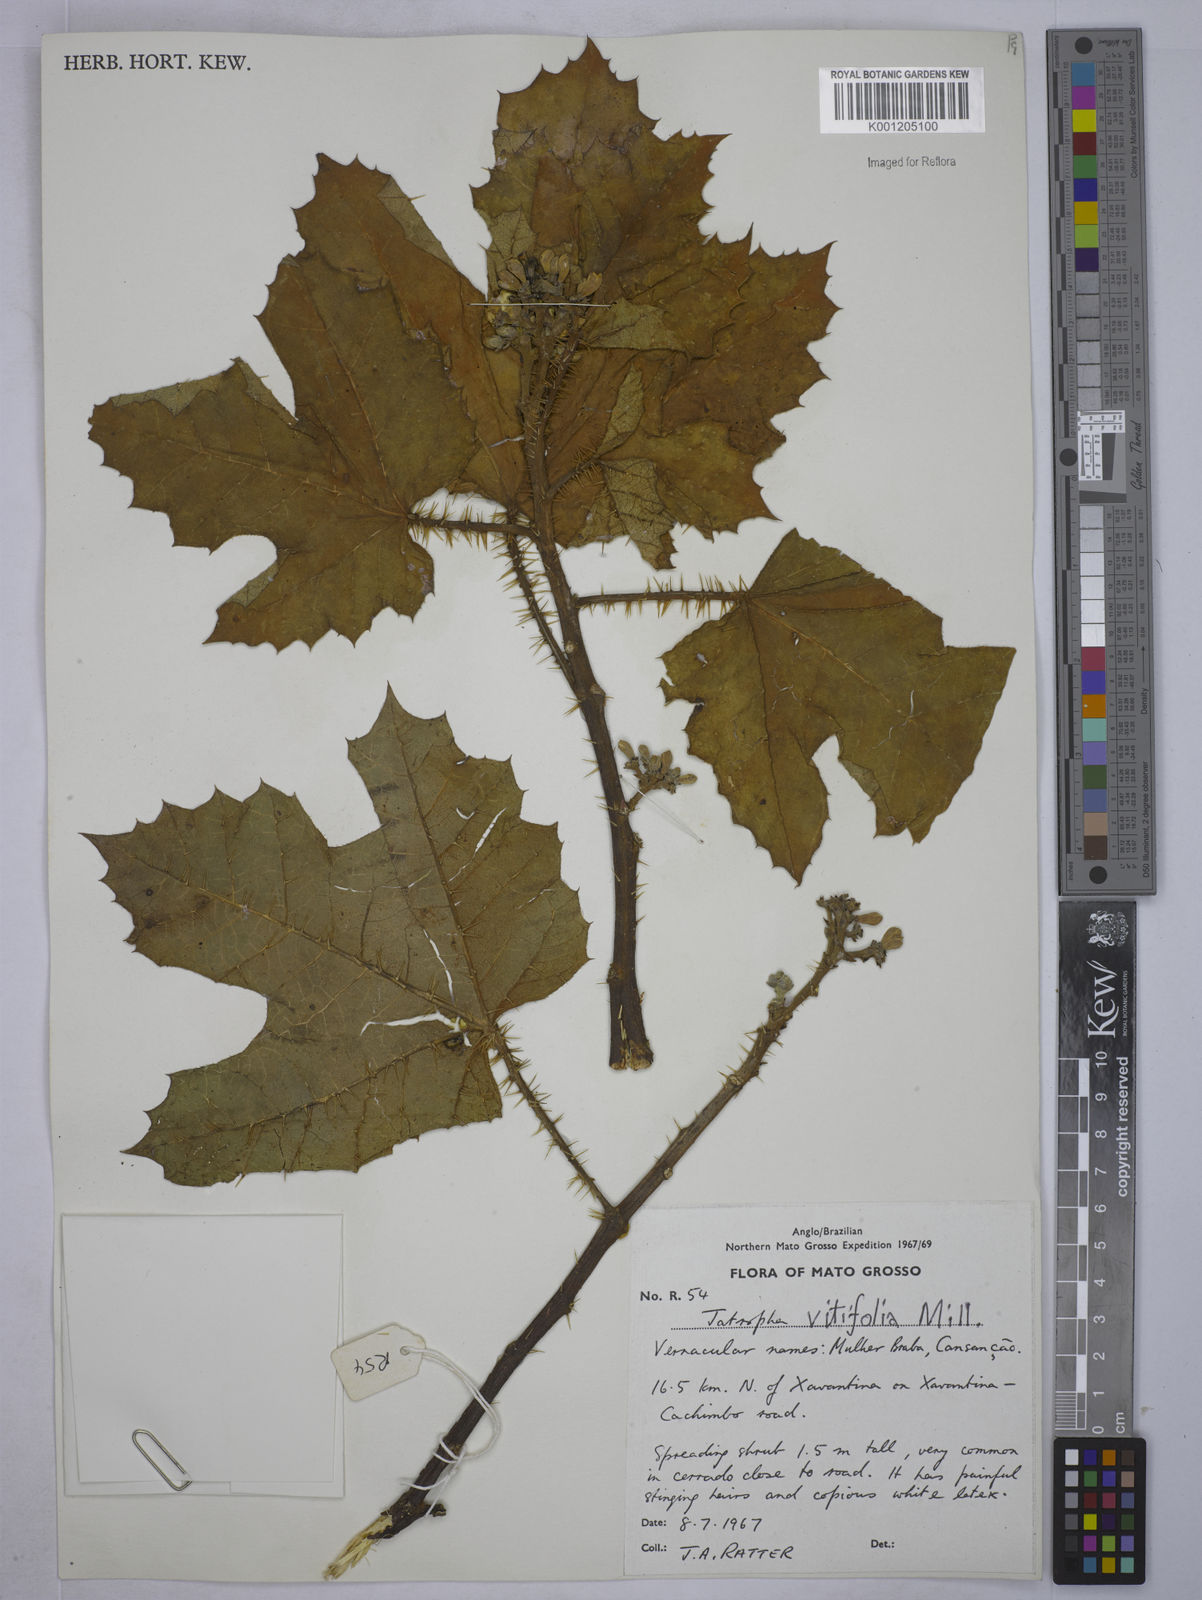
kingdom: Plantae
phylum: Tracheophyta
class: Magnoliopsida
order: Malpighiales
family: Euphorbiaceae
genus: Cnidoscolus
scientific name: Cnidoscolus vitifolius
